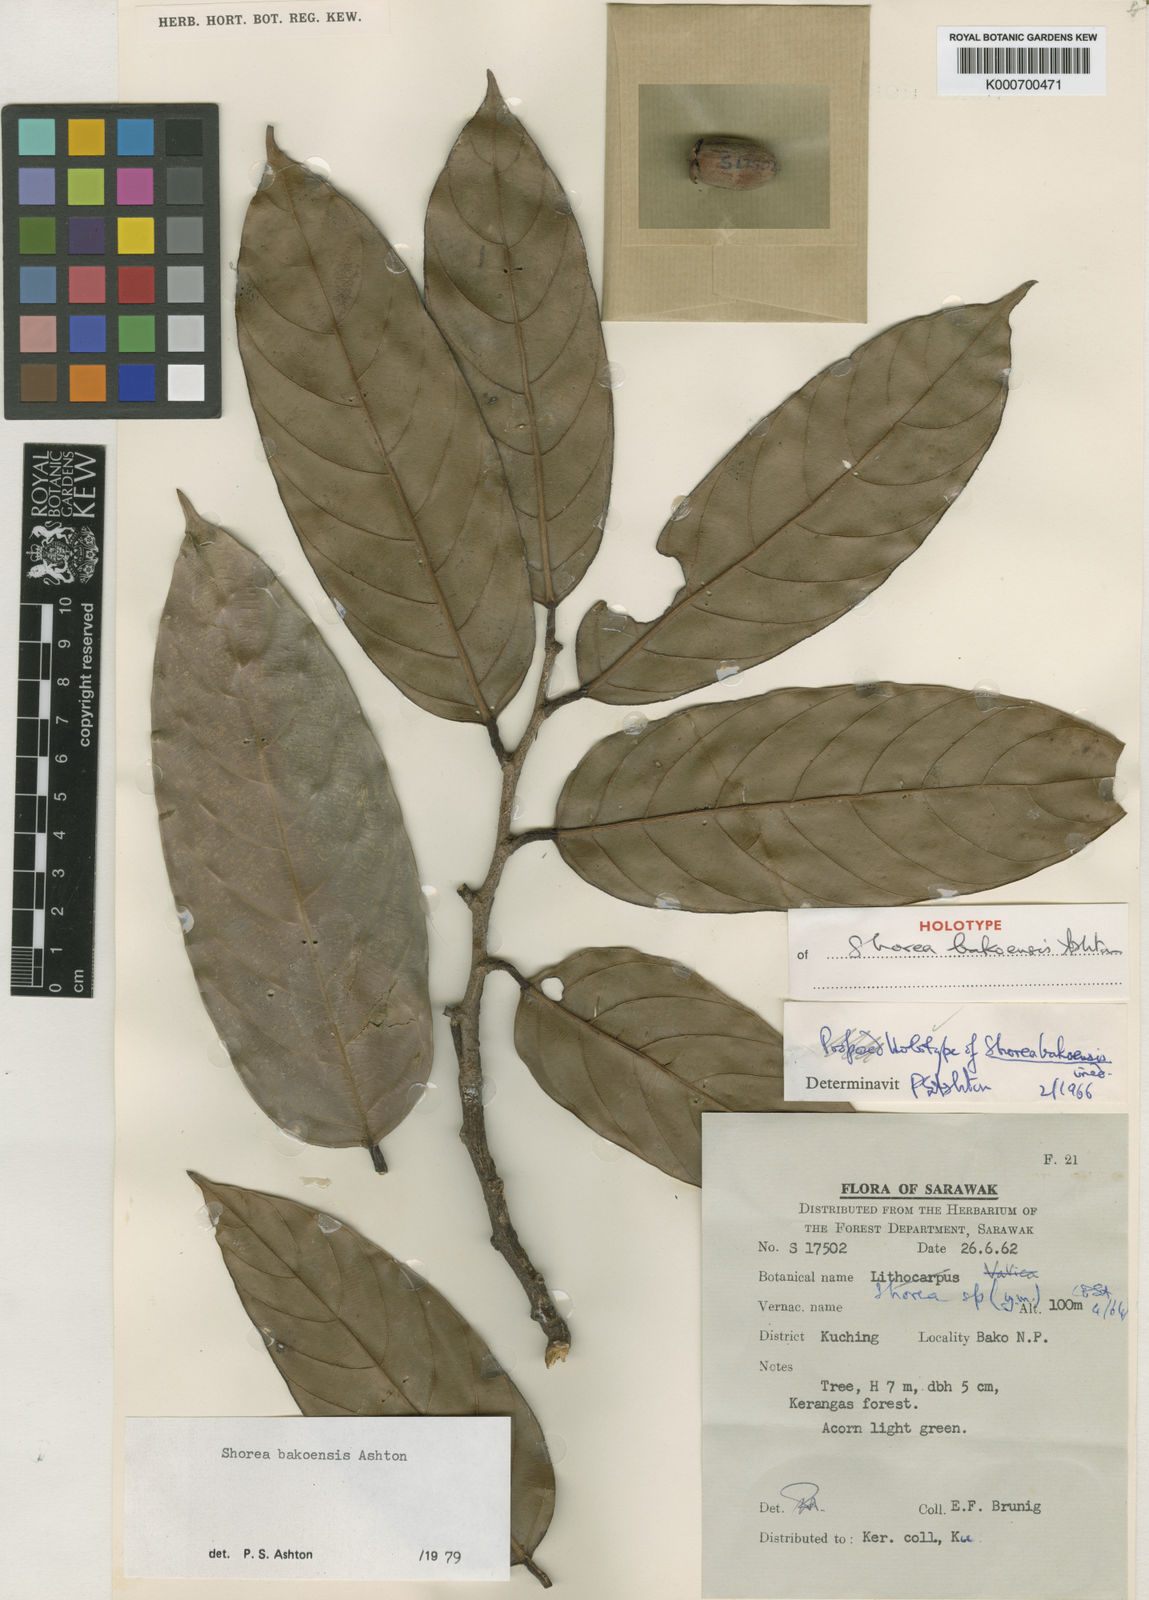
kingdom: Plantae
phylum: Tracheophyta
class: Magnoliopsida
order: Malvales
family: Dipterocarpaceae
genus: Shorea
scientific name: Shorea bakoensis
